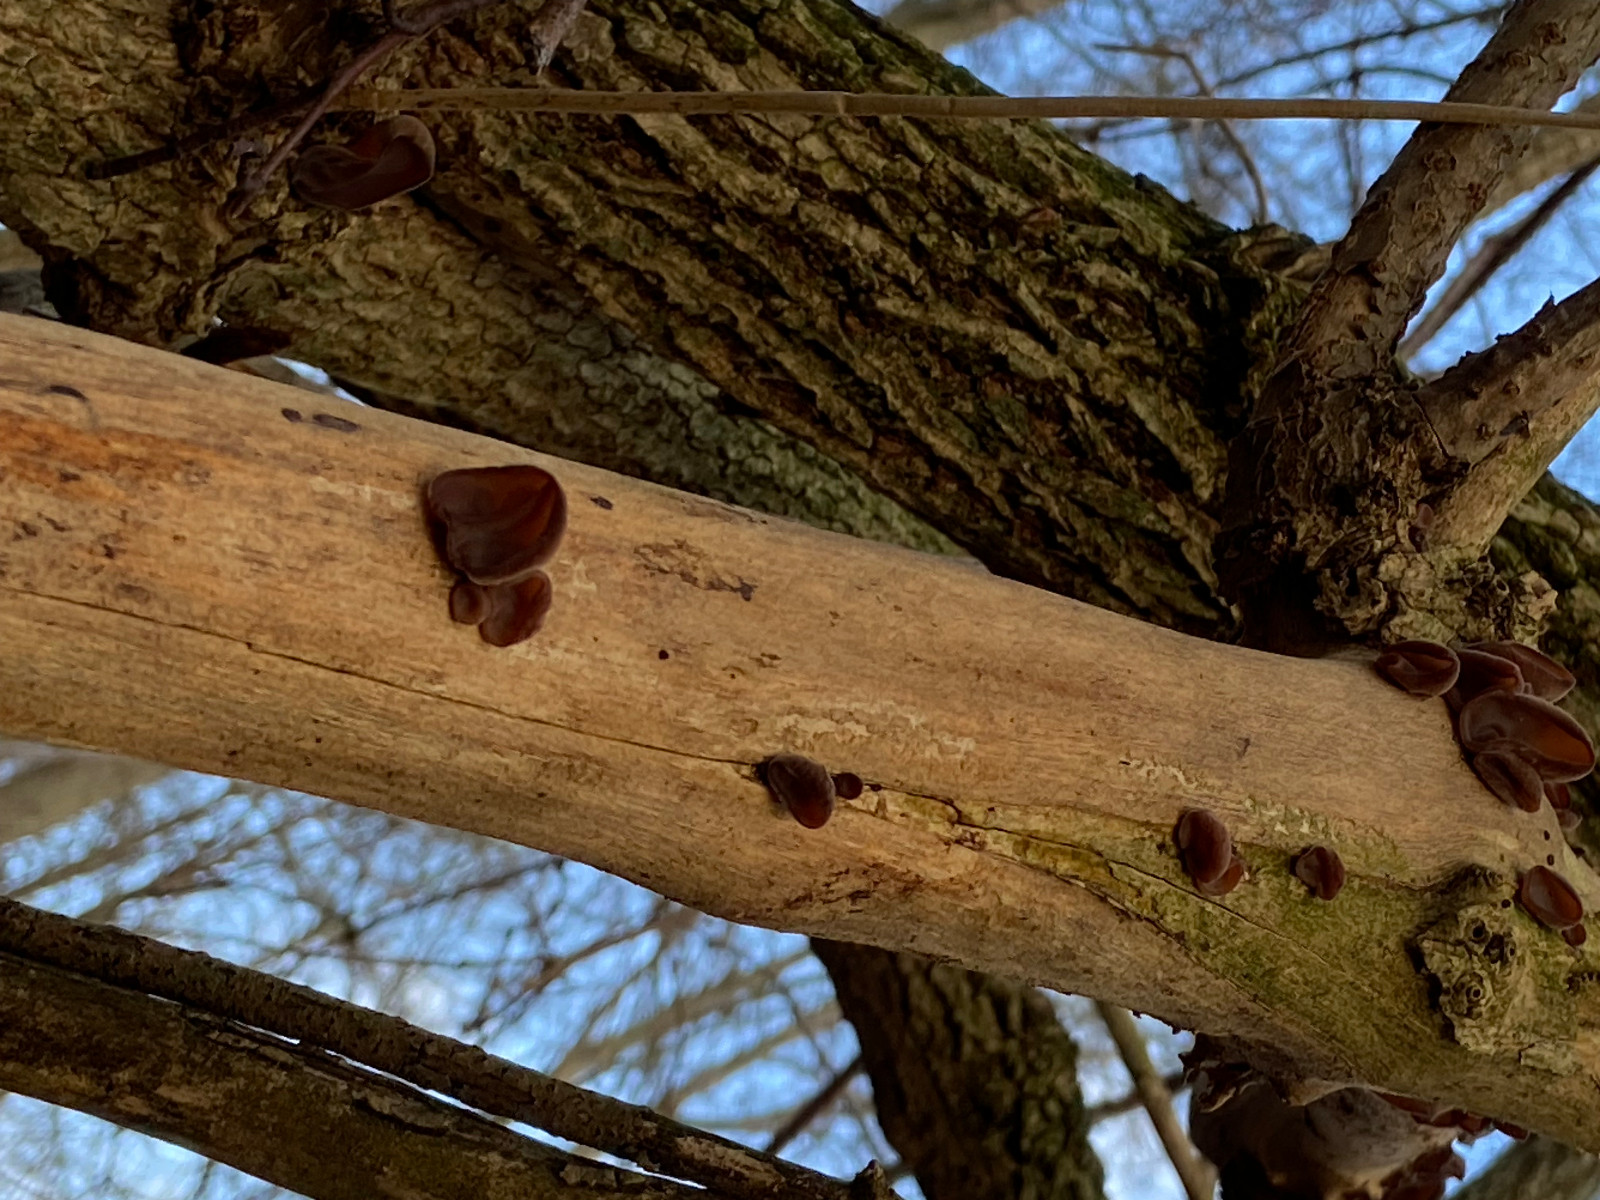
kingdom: Fungi
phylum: Basidiomycota
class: Agaricomycetes
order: Auriculariales
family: Auriculariaceae
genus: Auricularia
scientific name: Auricularia auricula-judae
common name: almindelig judasøre
